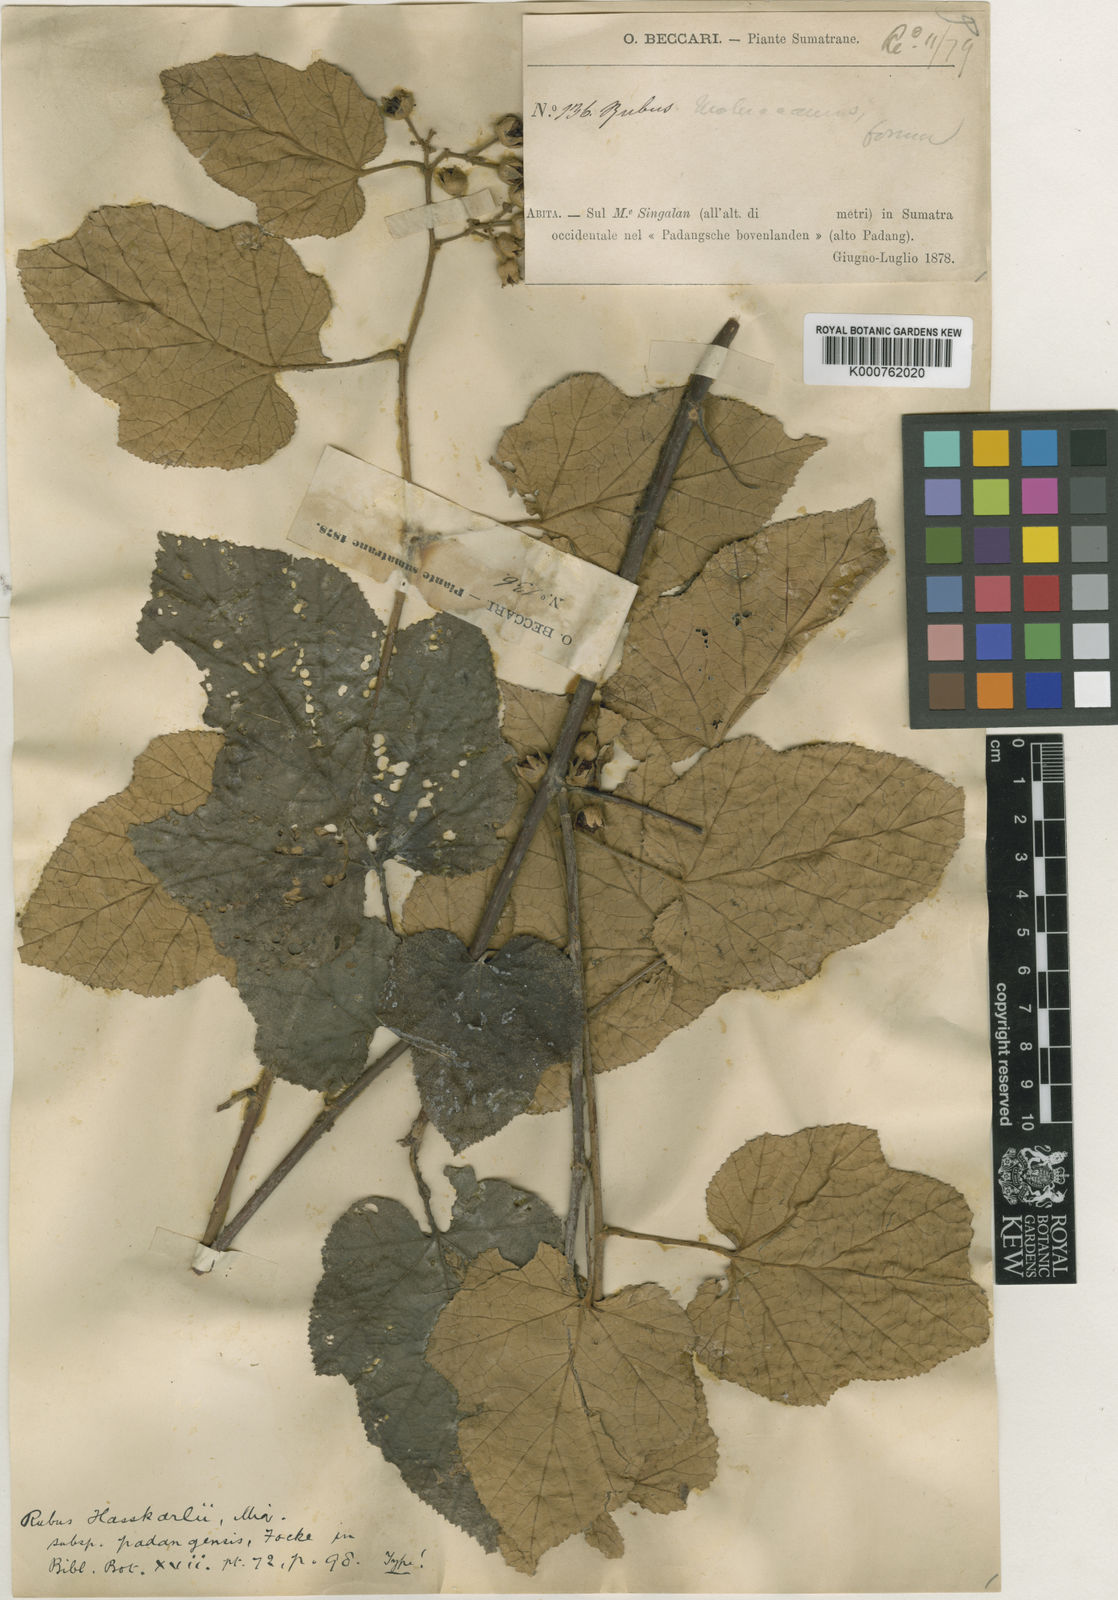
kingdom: Plantae
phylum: Tracheophyta
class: Magnoliopsida
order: Rosales
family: Rosaceae
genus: Rubus
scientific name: Rubus moluccanus
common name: Wild raspberry
